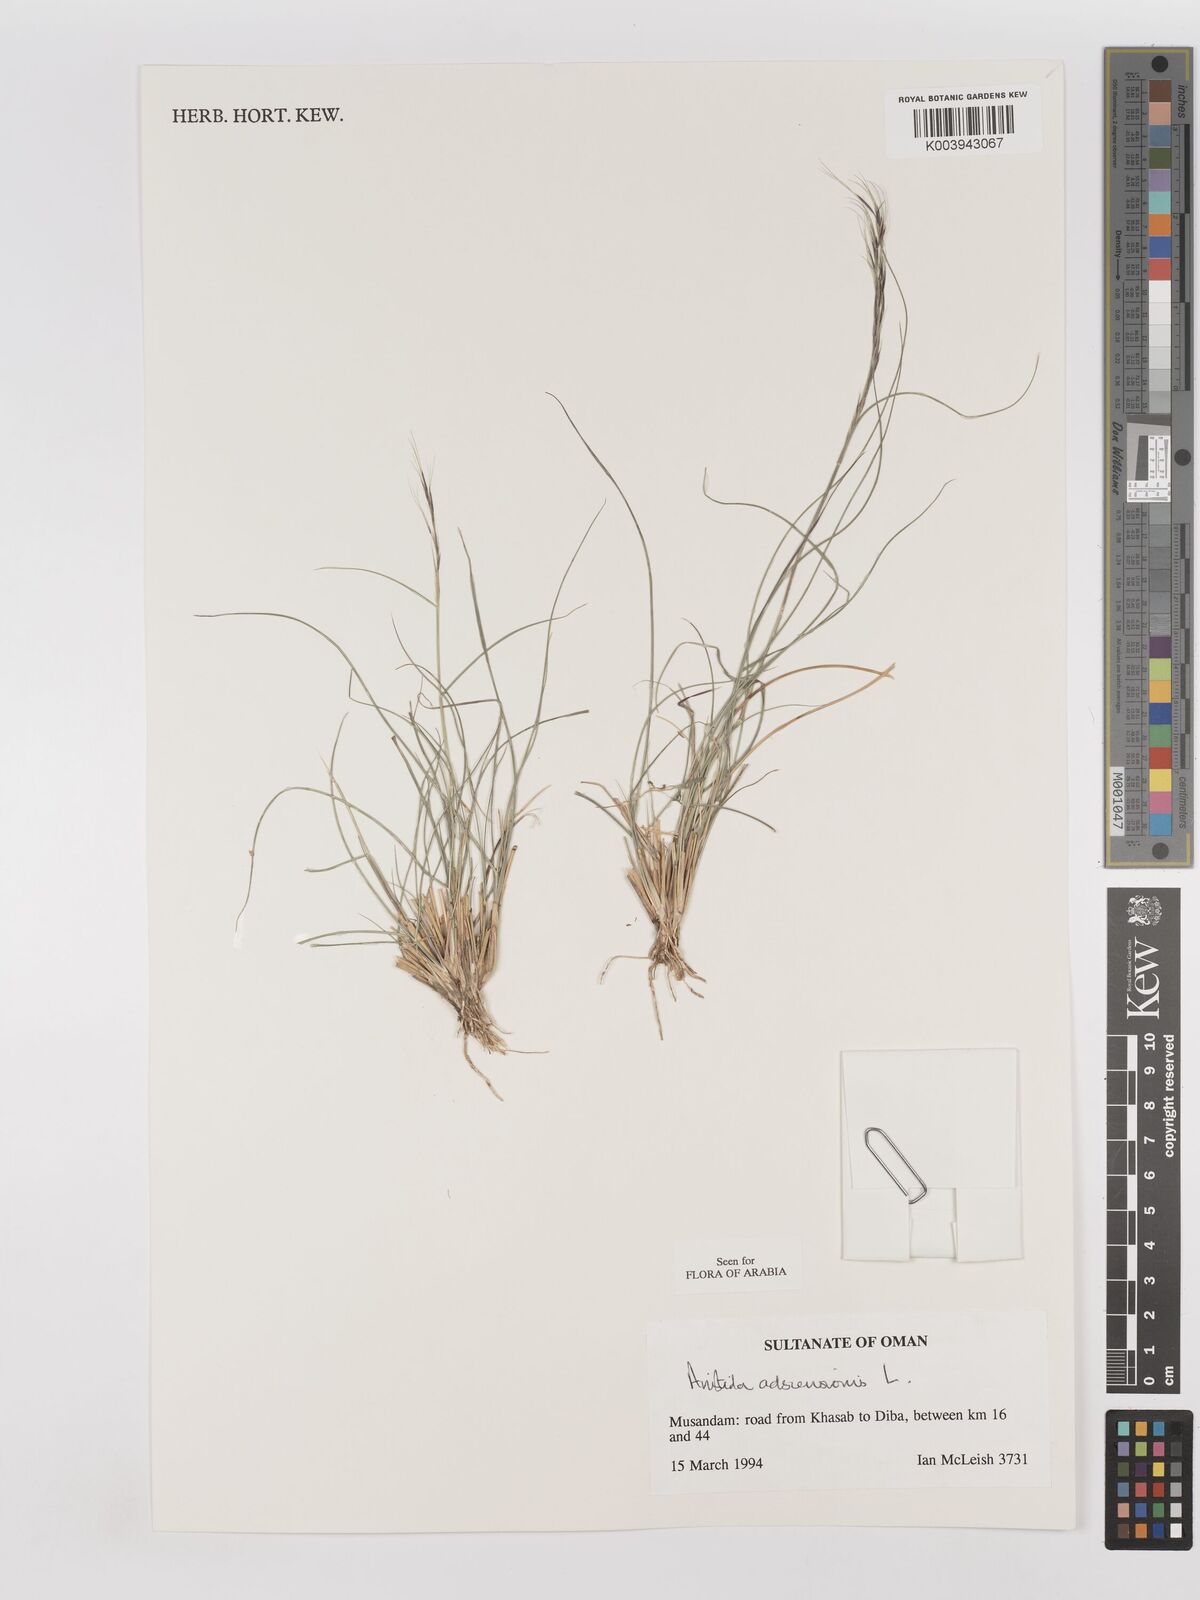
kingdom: Plantae
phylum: Tracheophyta
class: Liliopsida
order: Poales
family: Poaceae
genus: Aristida
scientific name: Aristida adscensionis
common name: Sixweeks threeawn
